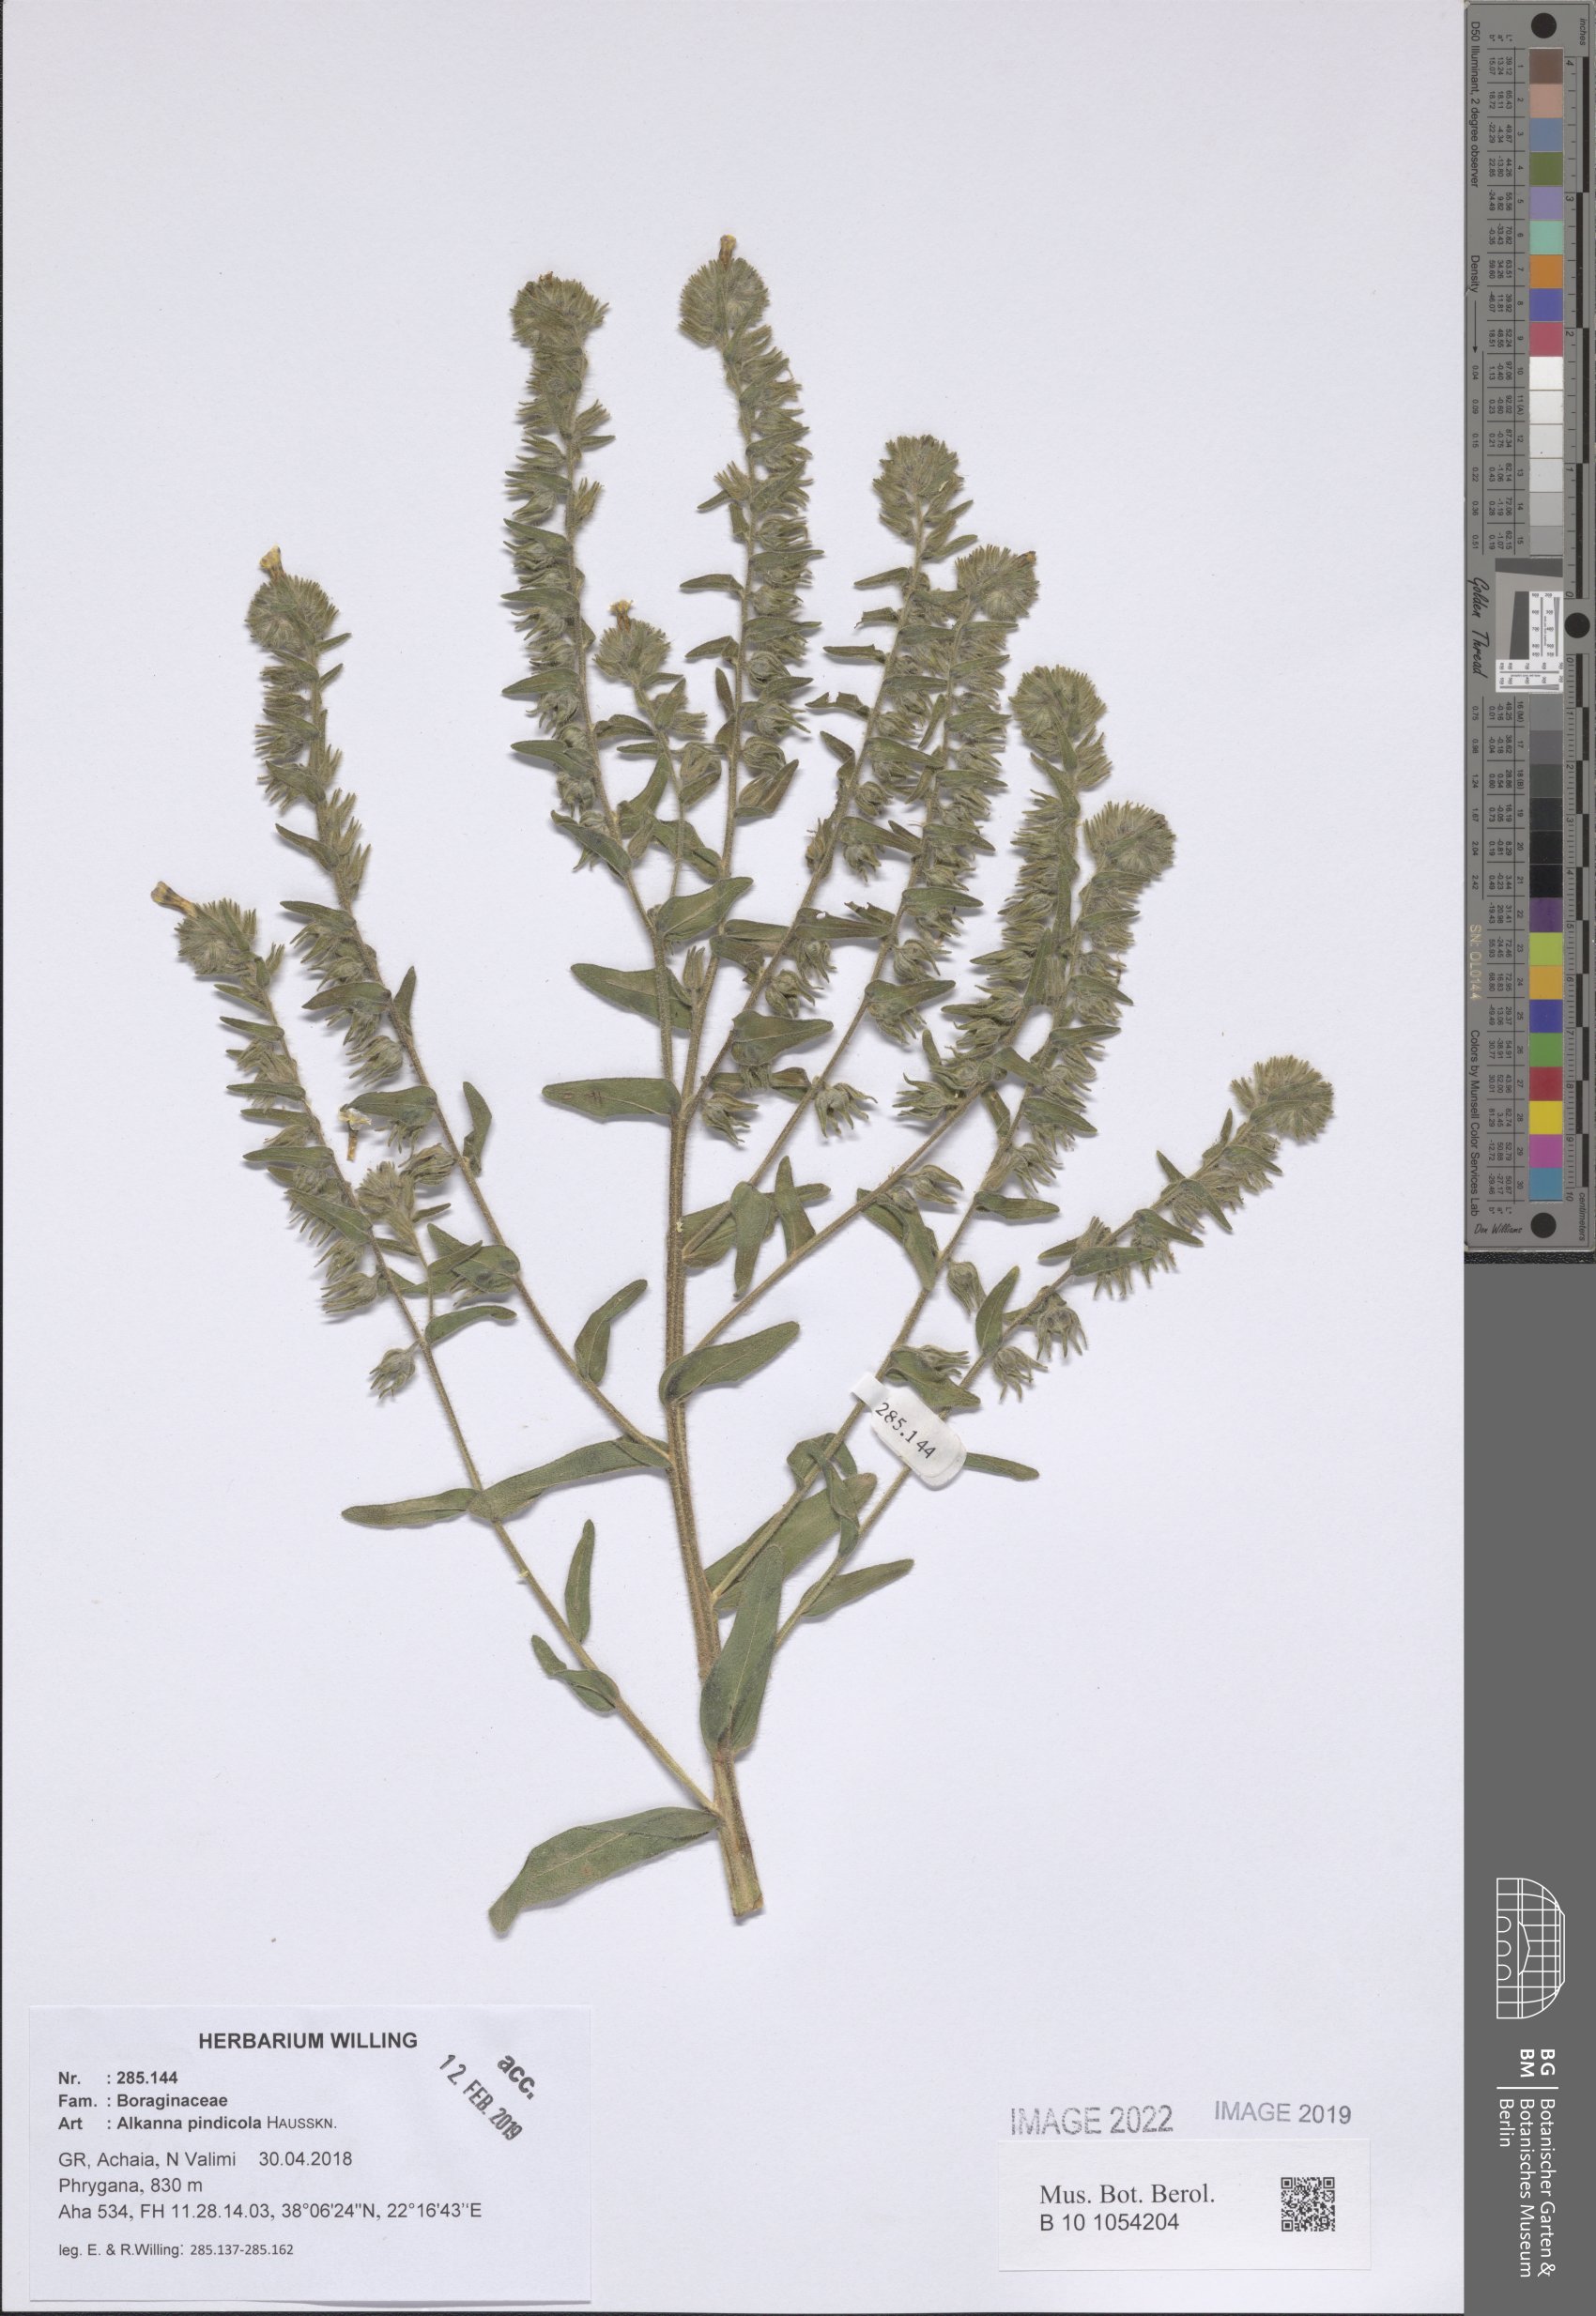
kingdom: Plantae
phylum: Tracheophyta
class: Magnoliopsida
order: Boraginales
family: Boraginaceae
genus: Alkanna
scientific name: Alkanna pindicola
